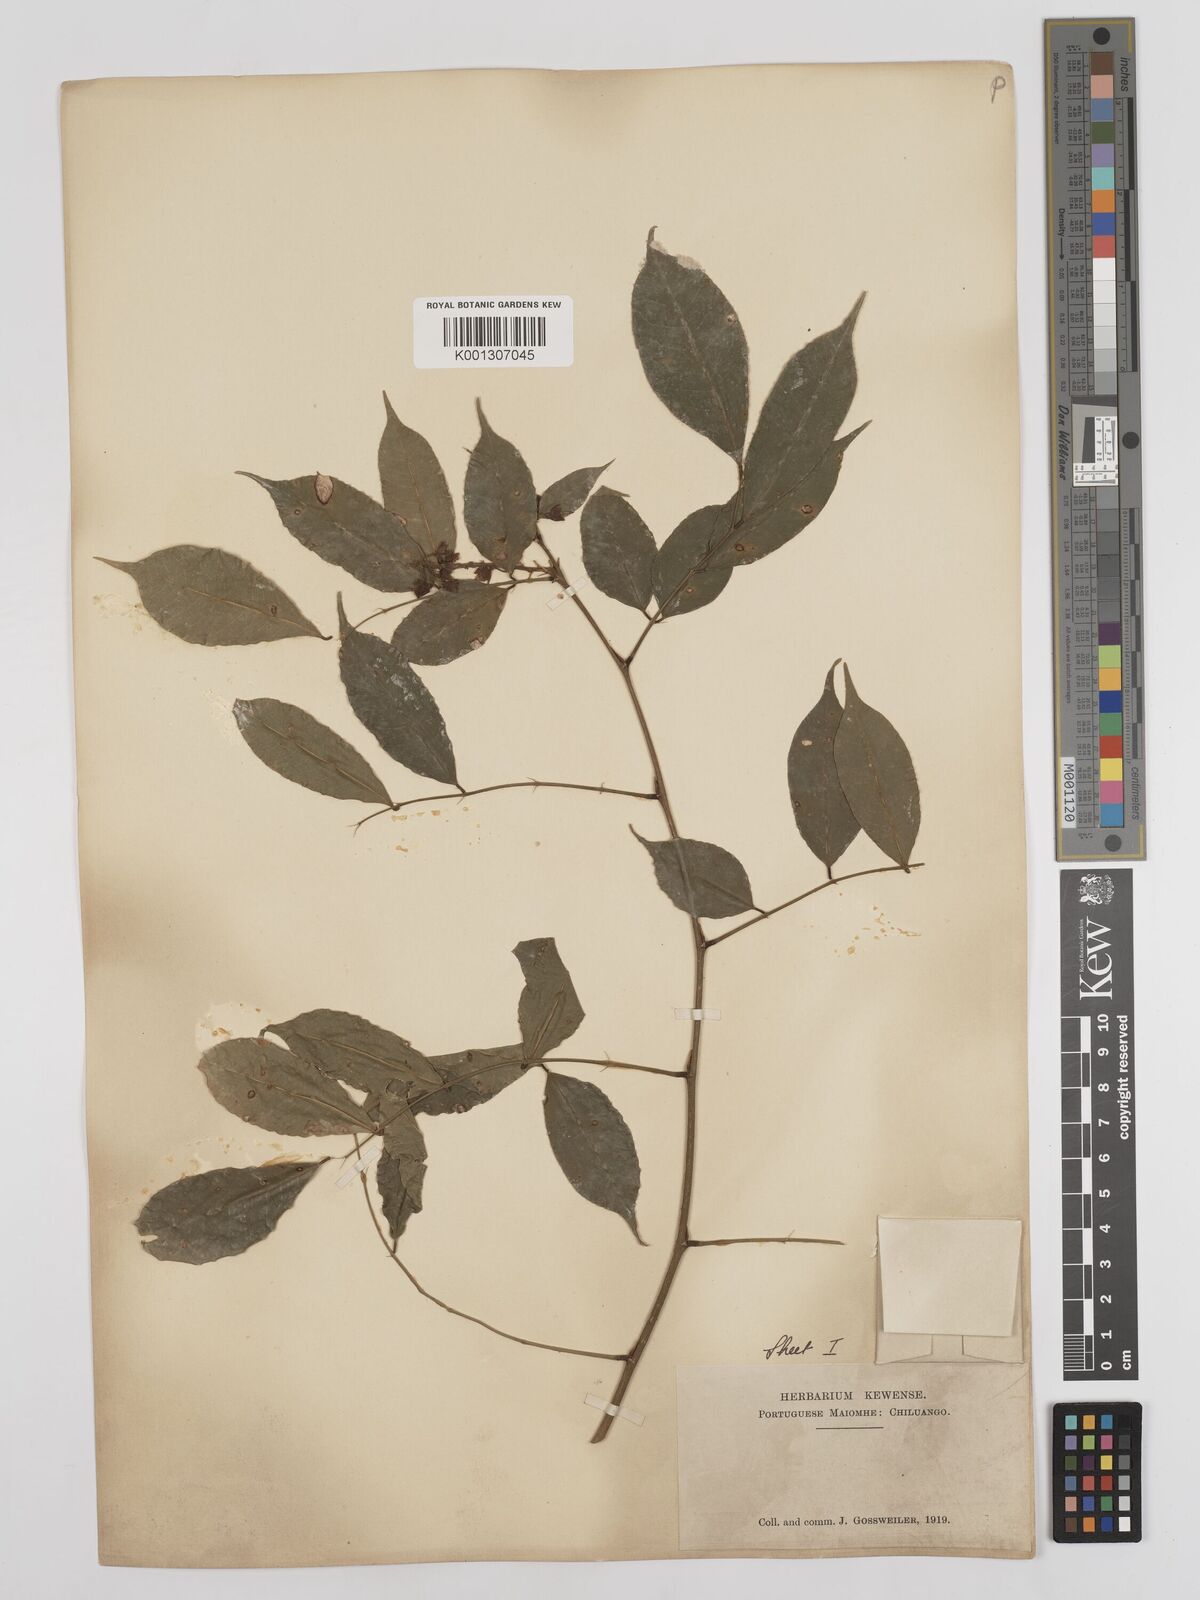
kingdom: Plantae
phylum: Tracheophyta
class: Magnoliopsida
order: Fabales
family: Fabaceae
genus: Millettia
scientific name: Millettia
